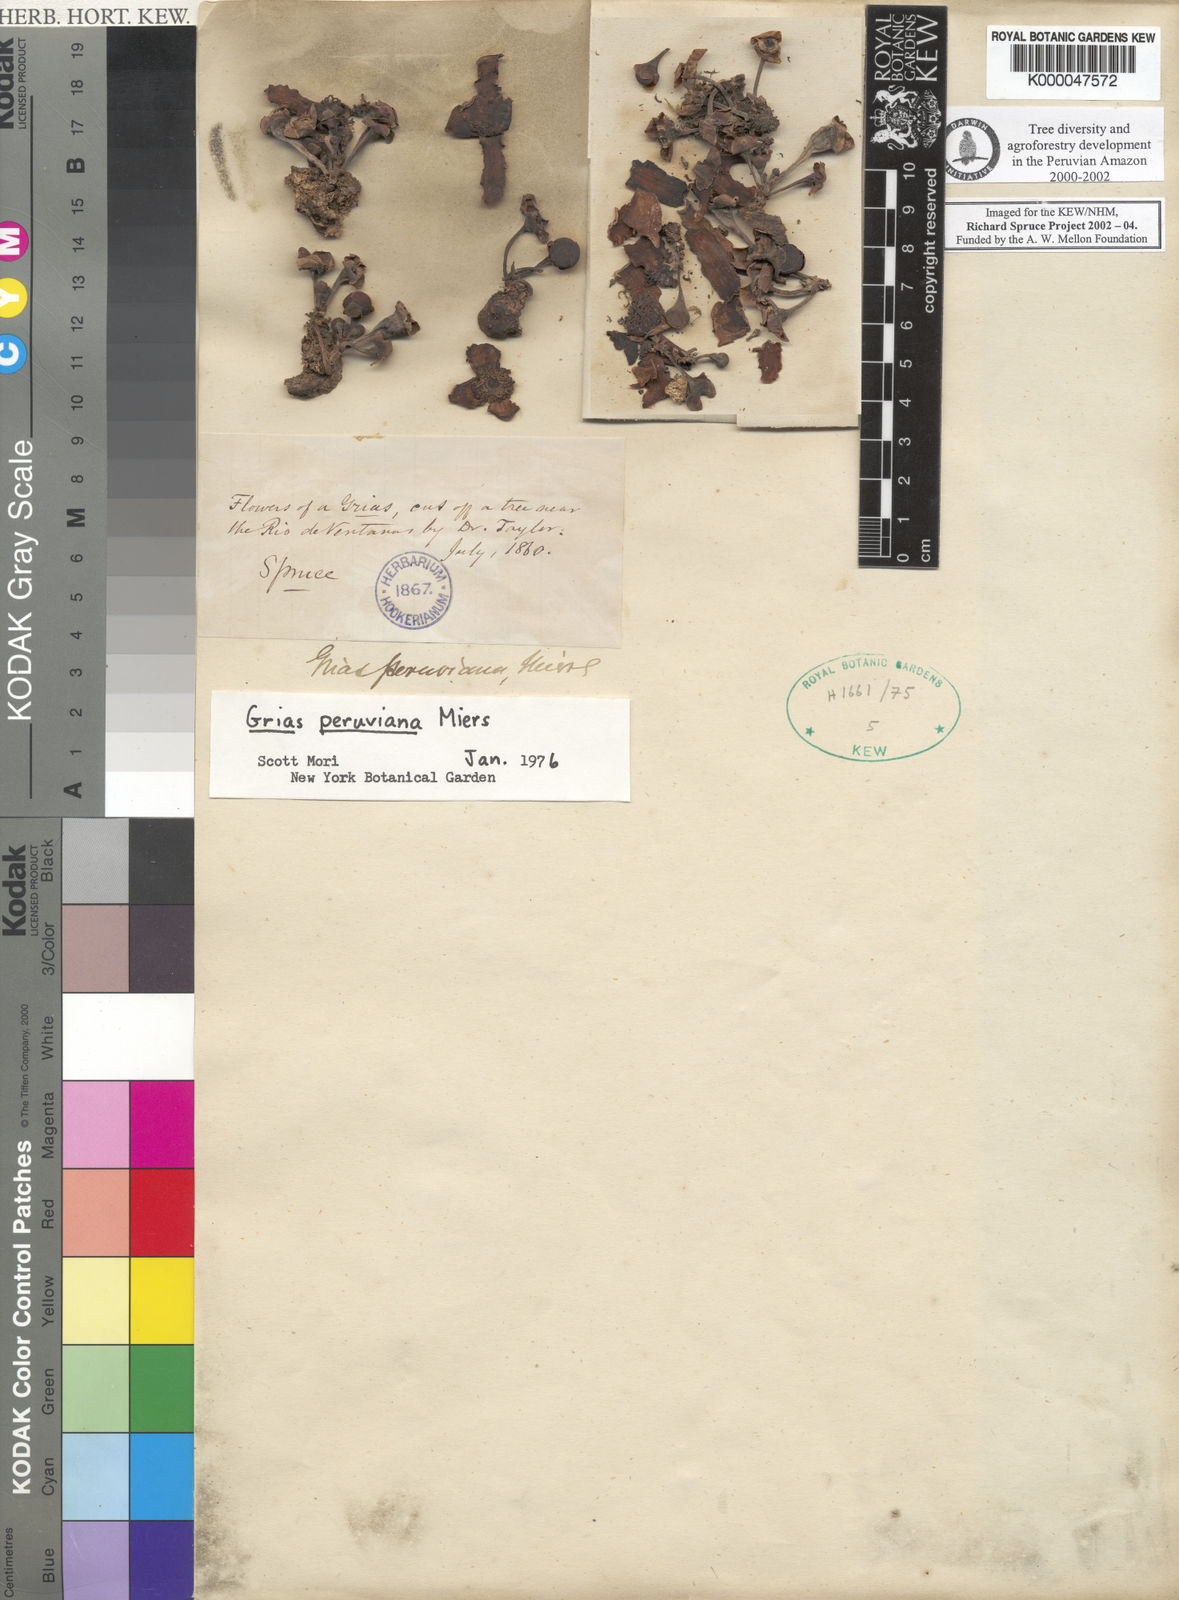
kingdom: Plantae
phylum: Tracheophyta
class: Magnoliopsida
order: Ericales
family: Lecythidaceae
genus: Grias
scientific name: Grias peruviana
